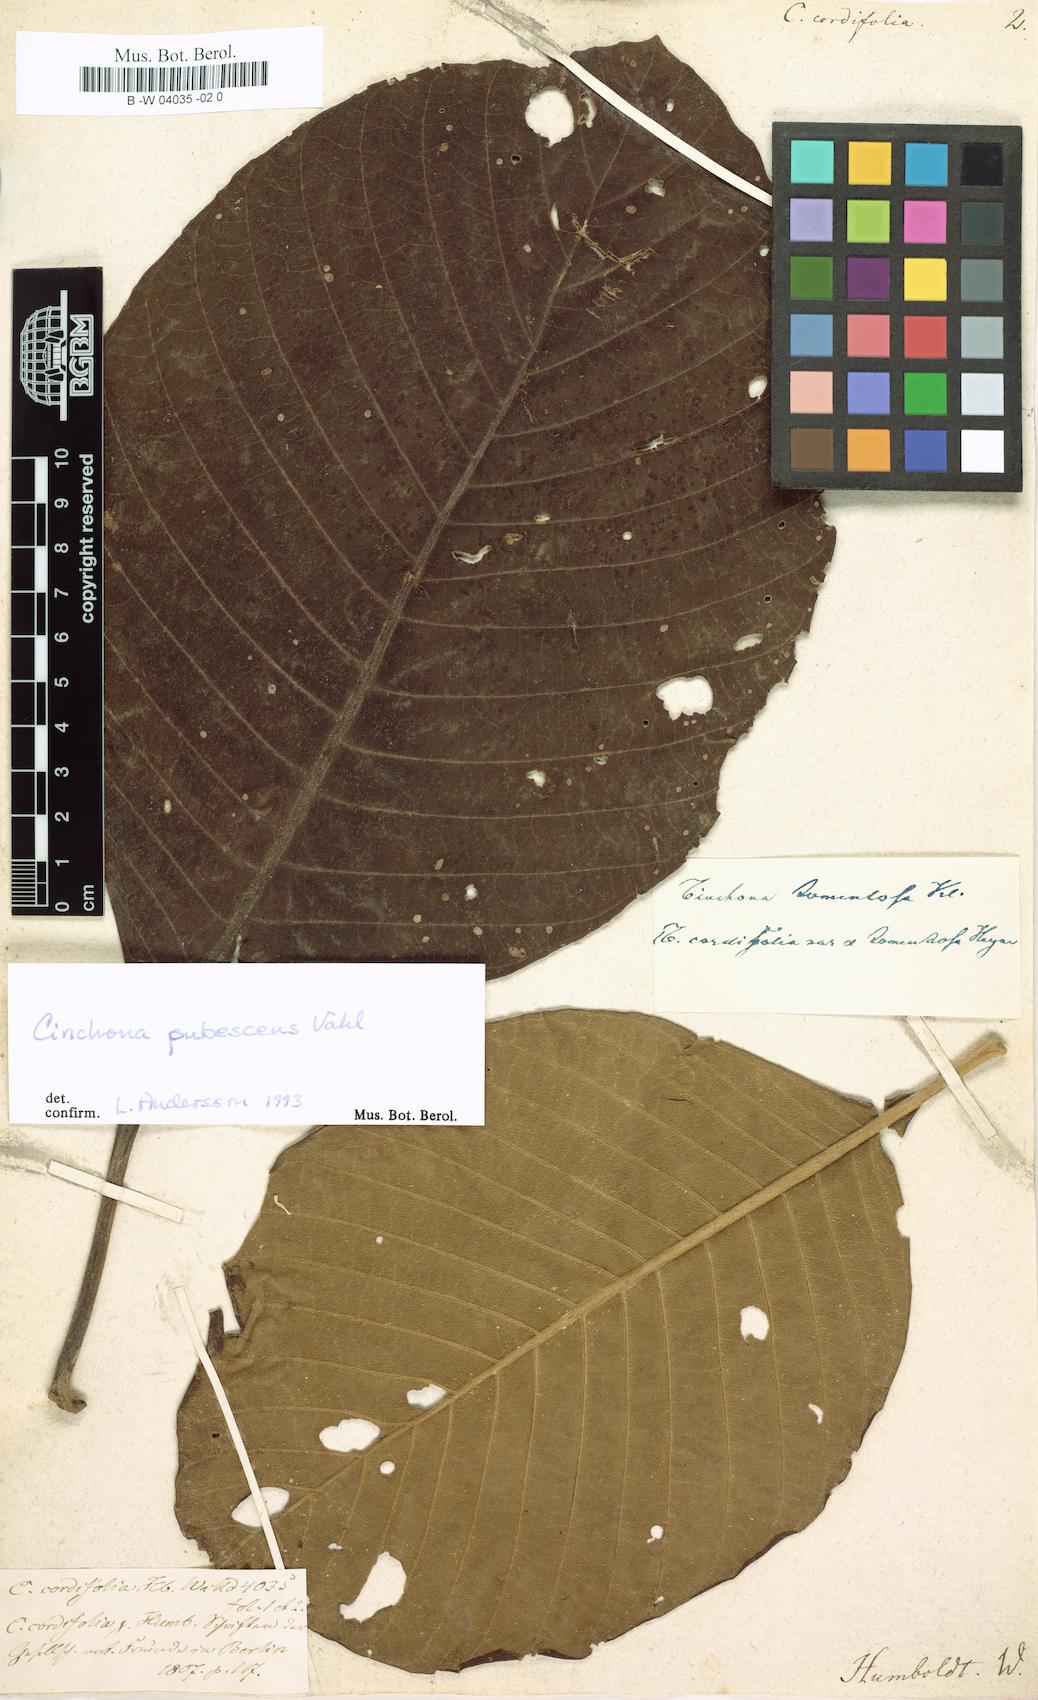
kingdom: Plantae
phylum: Tracheophyta
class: Magnoliopsida
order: Gentianales
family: Rubiaceae
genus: Cinchona
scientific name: Cinchona cordifolia
